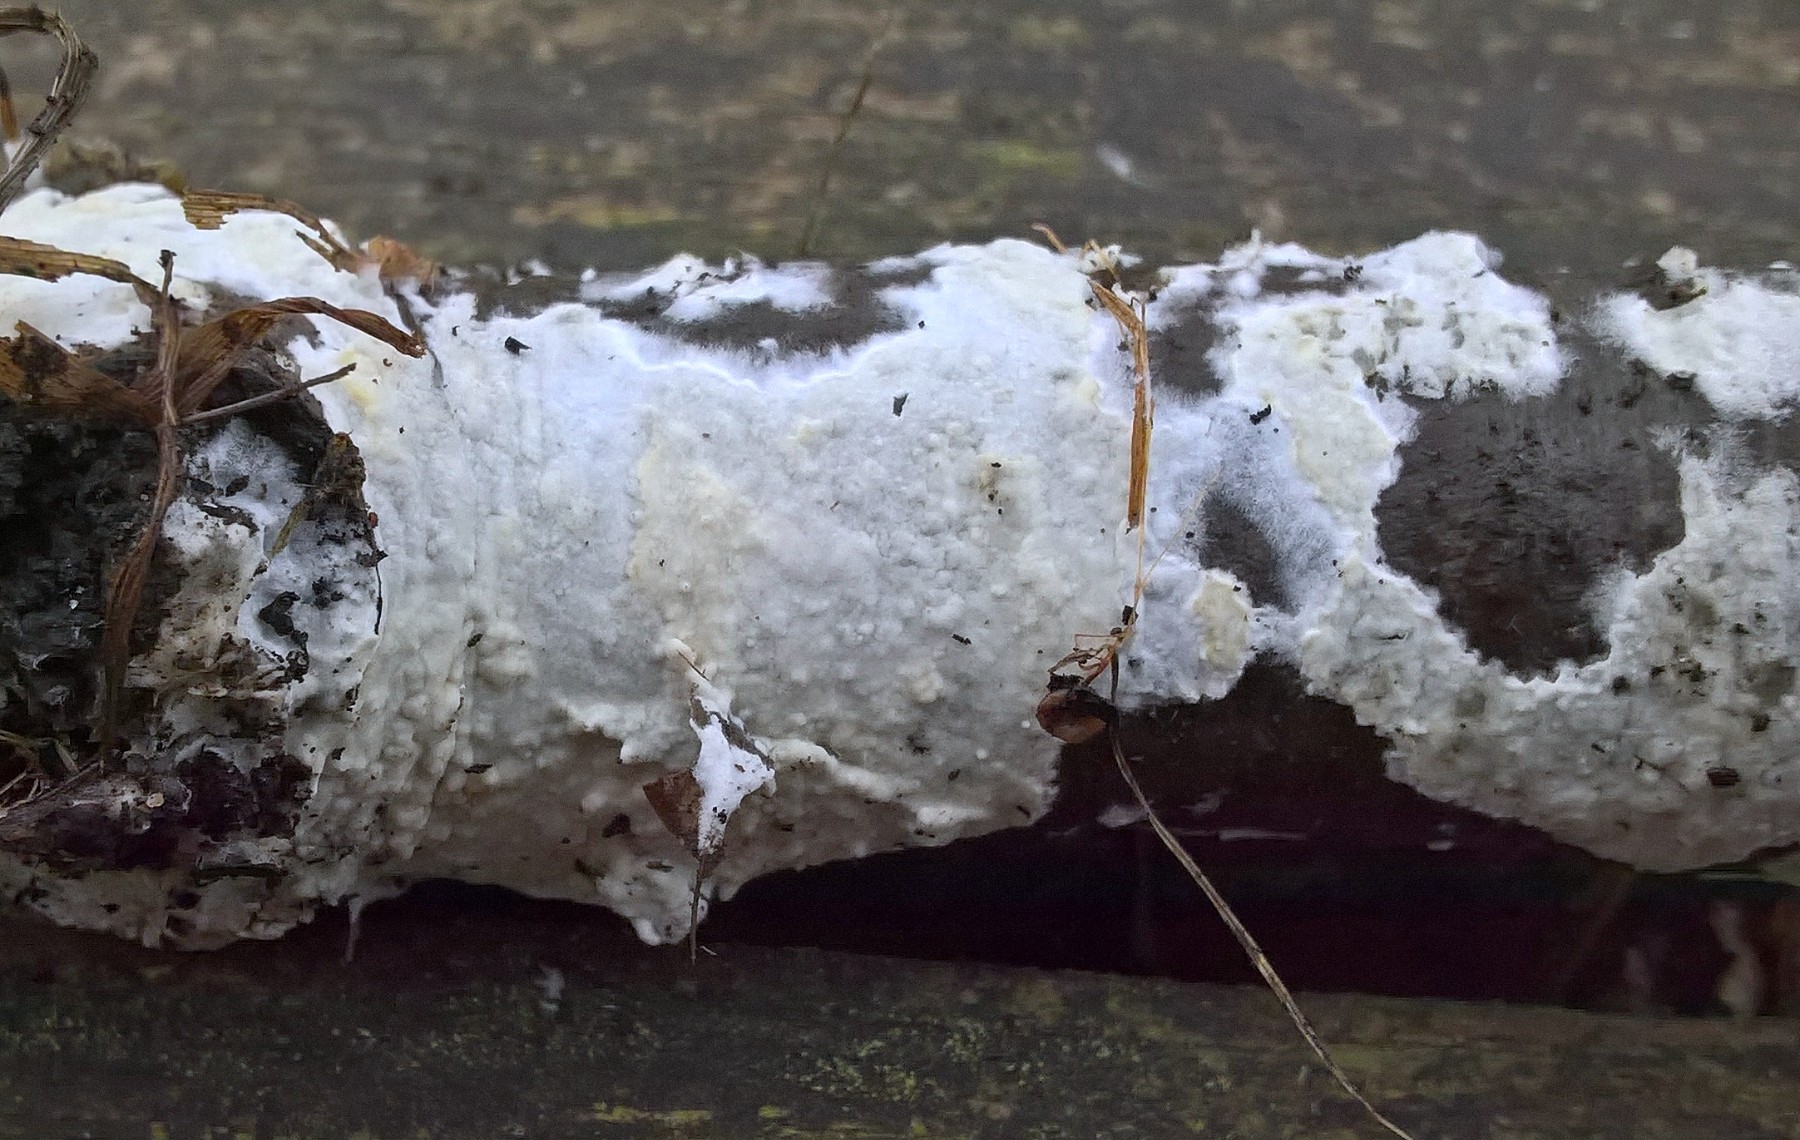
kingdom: Fungi
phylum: Basidiomycota
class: Agaricomycetes
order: Corticiales
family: Corticiaceae
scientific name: Corticiaceae
